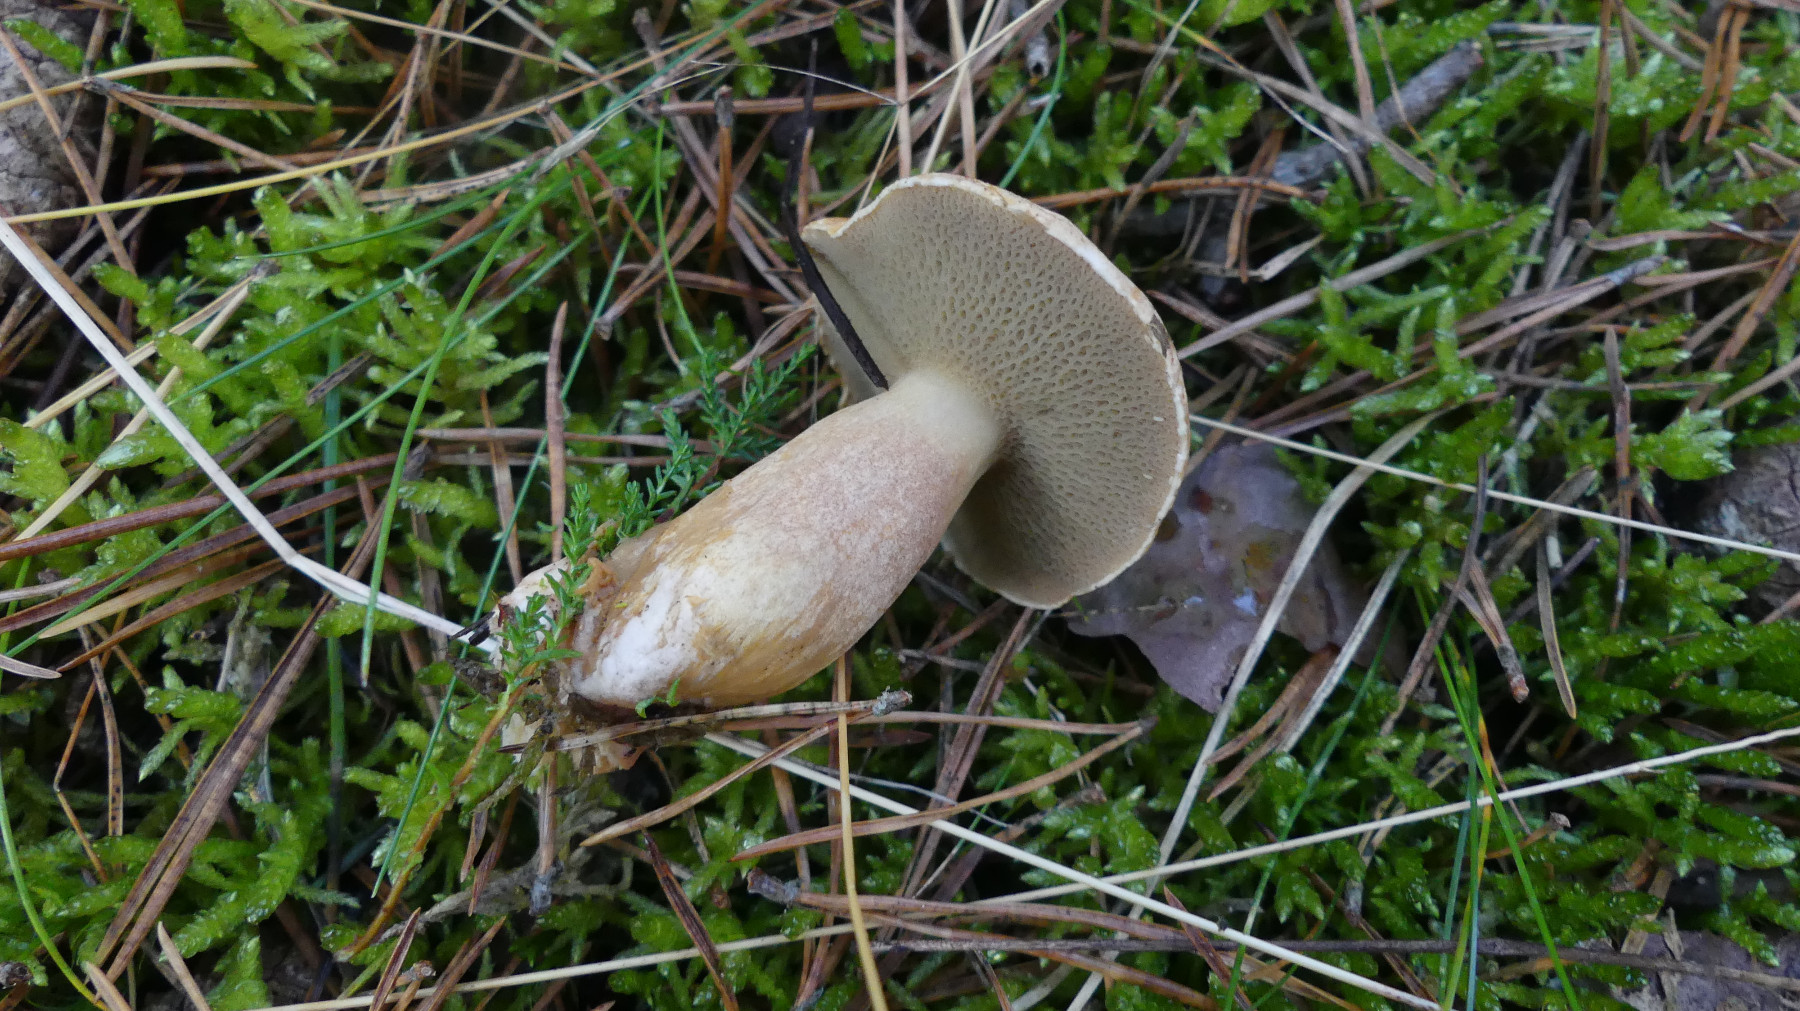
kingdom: Fungi
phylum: Basidiomycota
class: Agaricomycetes
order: Boletales
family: Suillaceae
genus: Suillus
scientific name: Suillus bovinus
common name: grovporet slimrørhat
